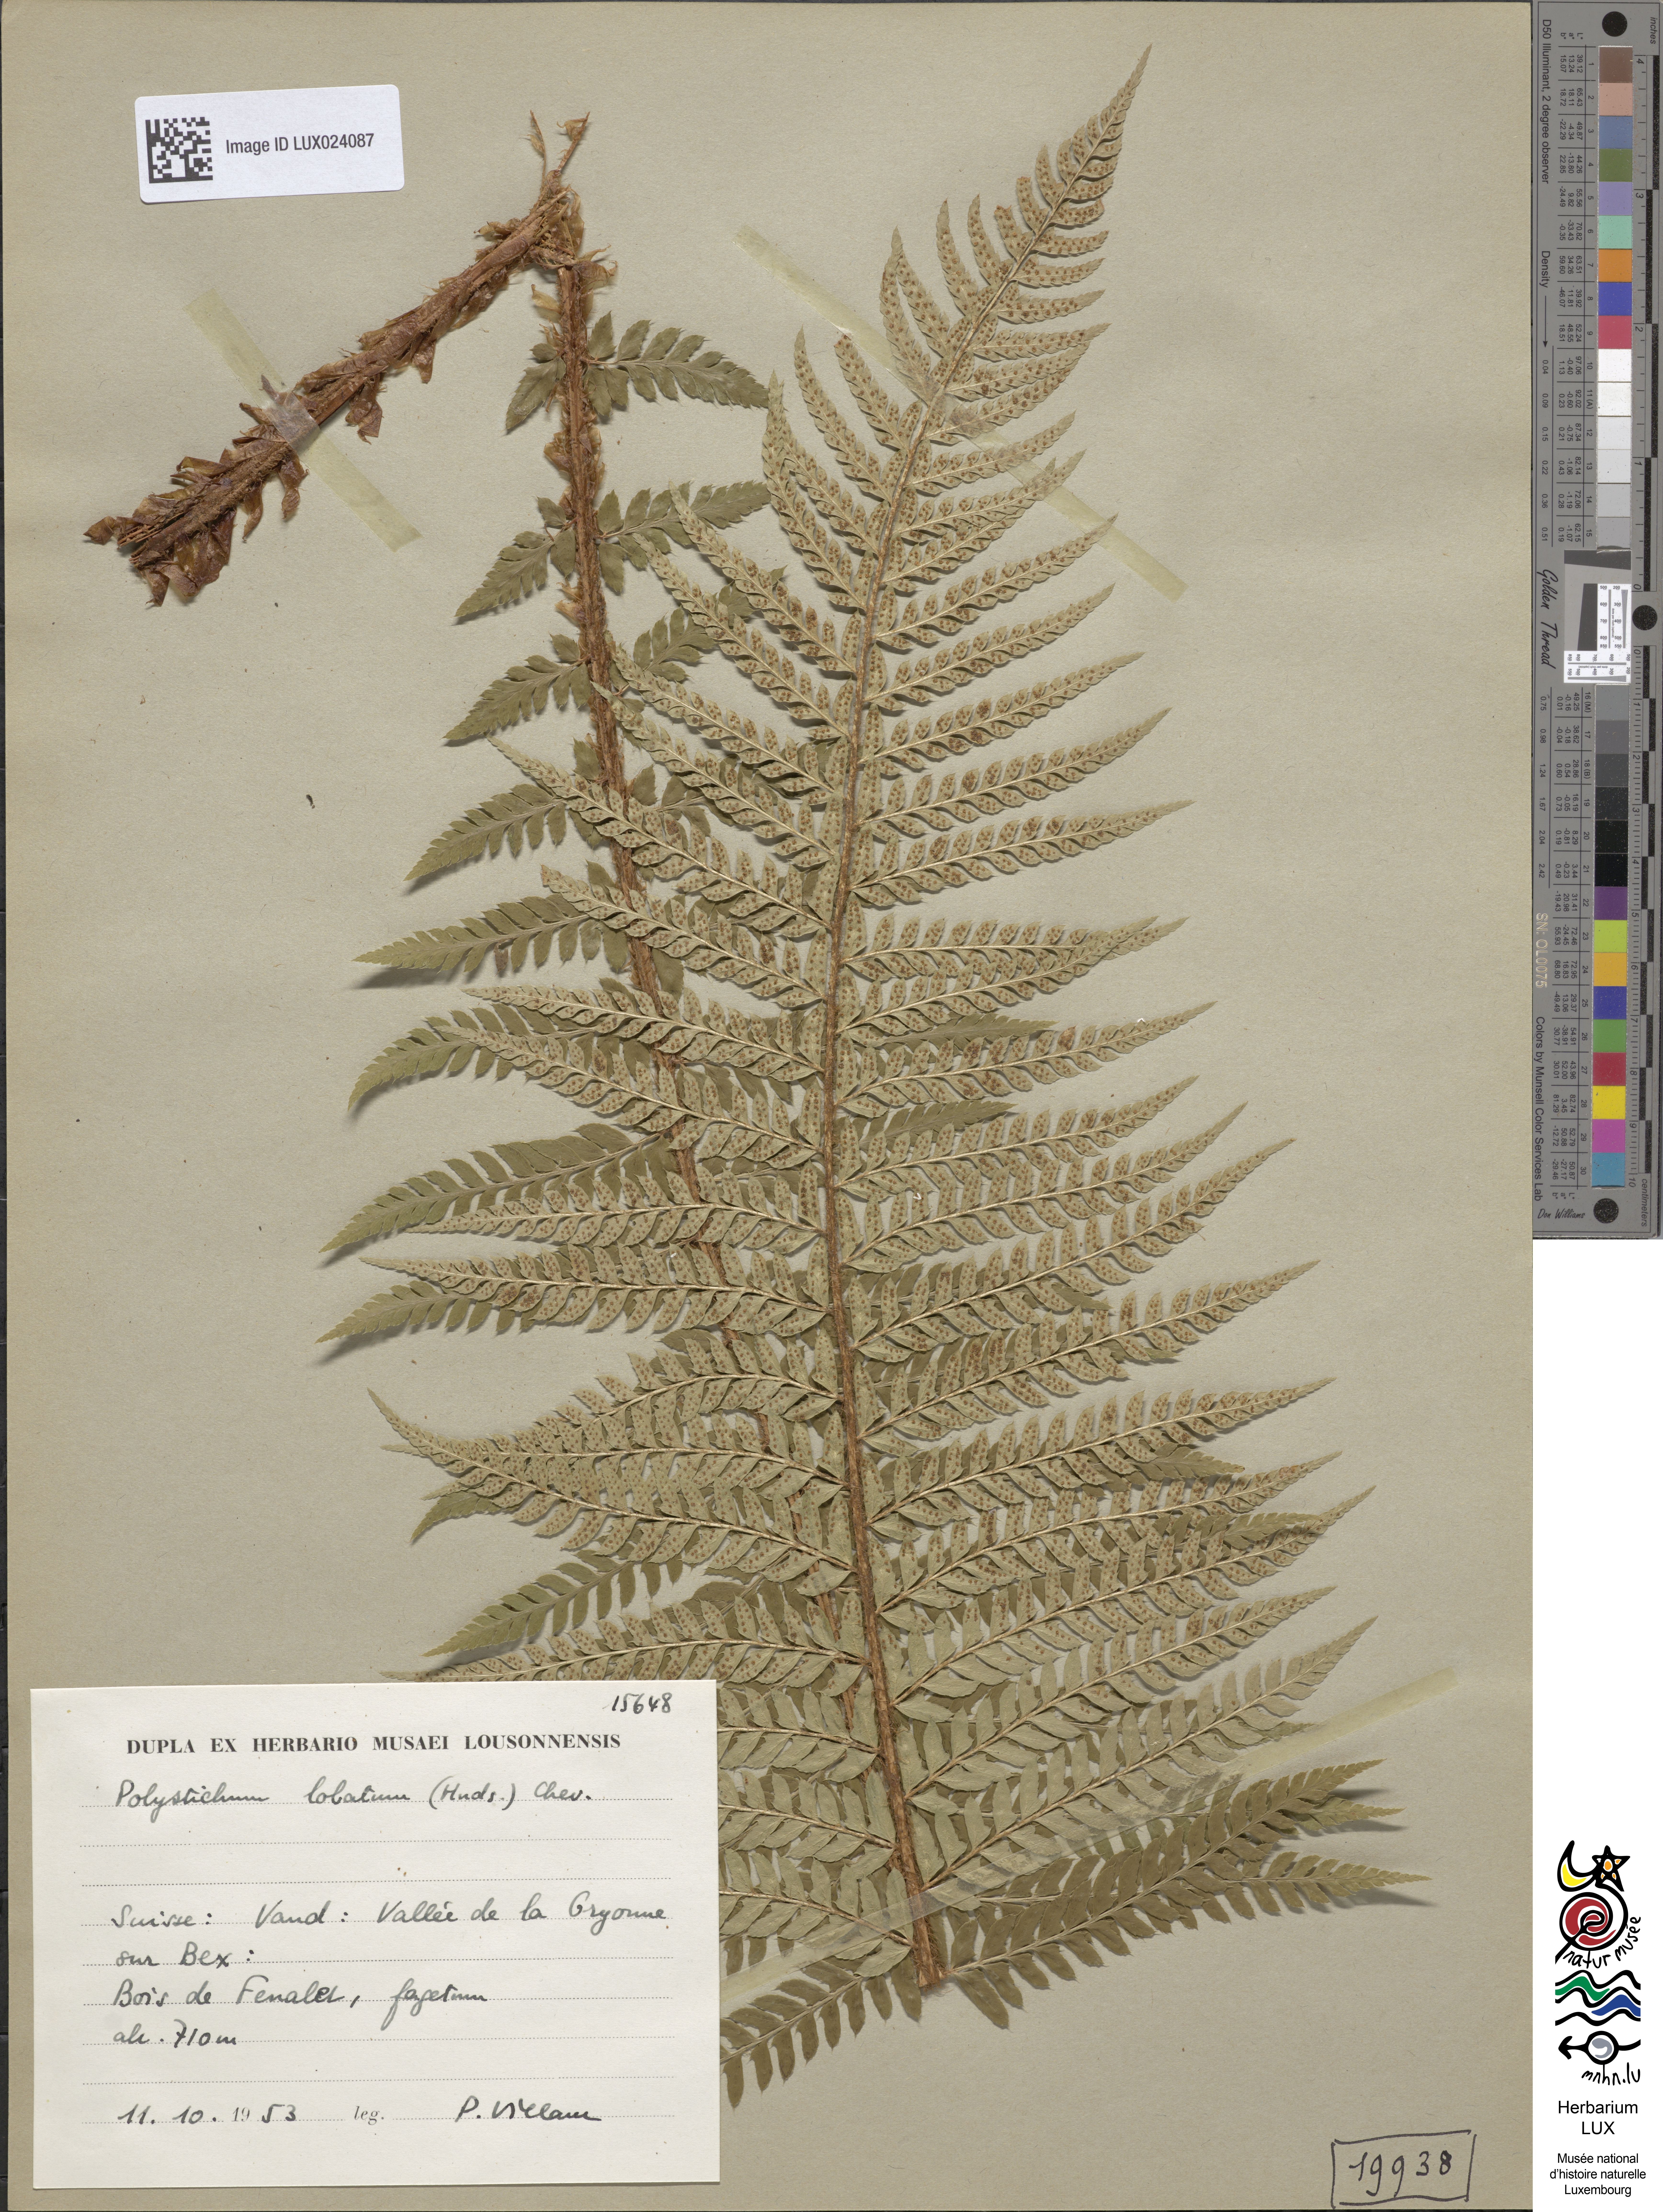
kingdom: Plantae
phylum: Tracheophyta
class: Polypodiopsida
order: Polypodiales
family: Dryopteridaceae
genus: Polystichum
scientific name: Polystichum aculeatum
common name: Hard shield-fern
